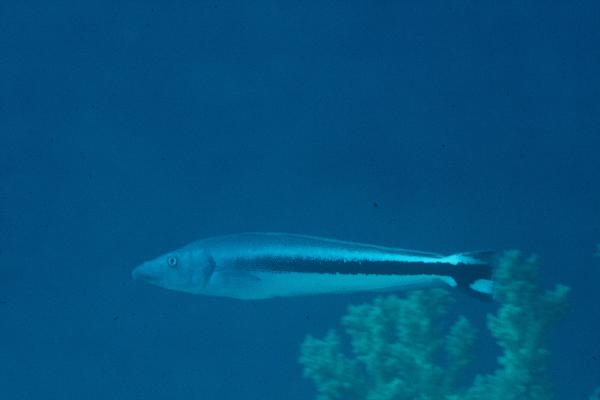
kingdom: Animalia
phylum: Chordata
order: Perciformes
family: Malacanthidae
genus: Malacanthus
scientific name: Malacanthus latovittatus
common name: Blue blanquillo
